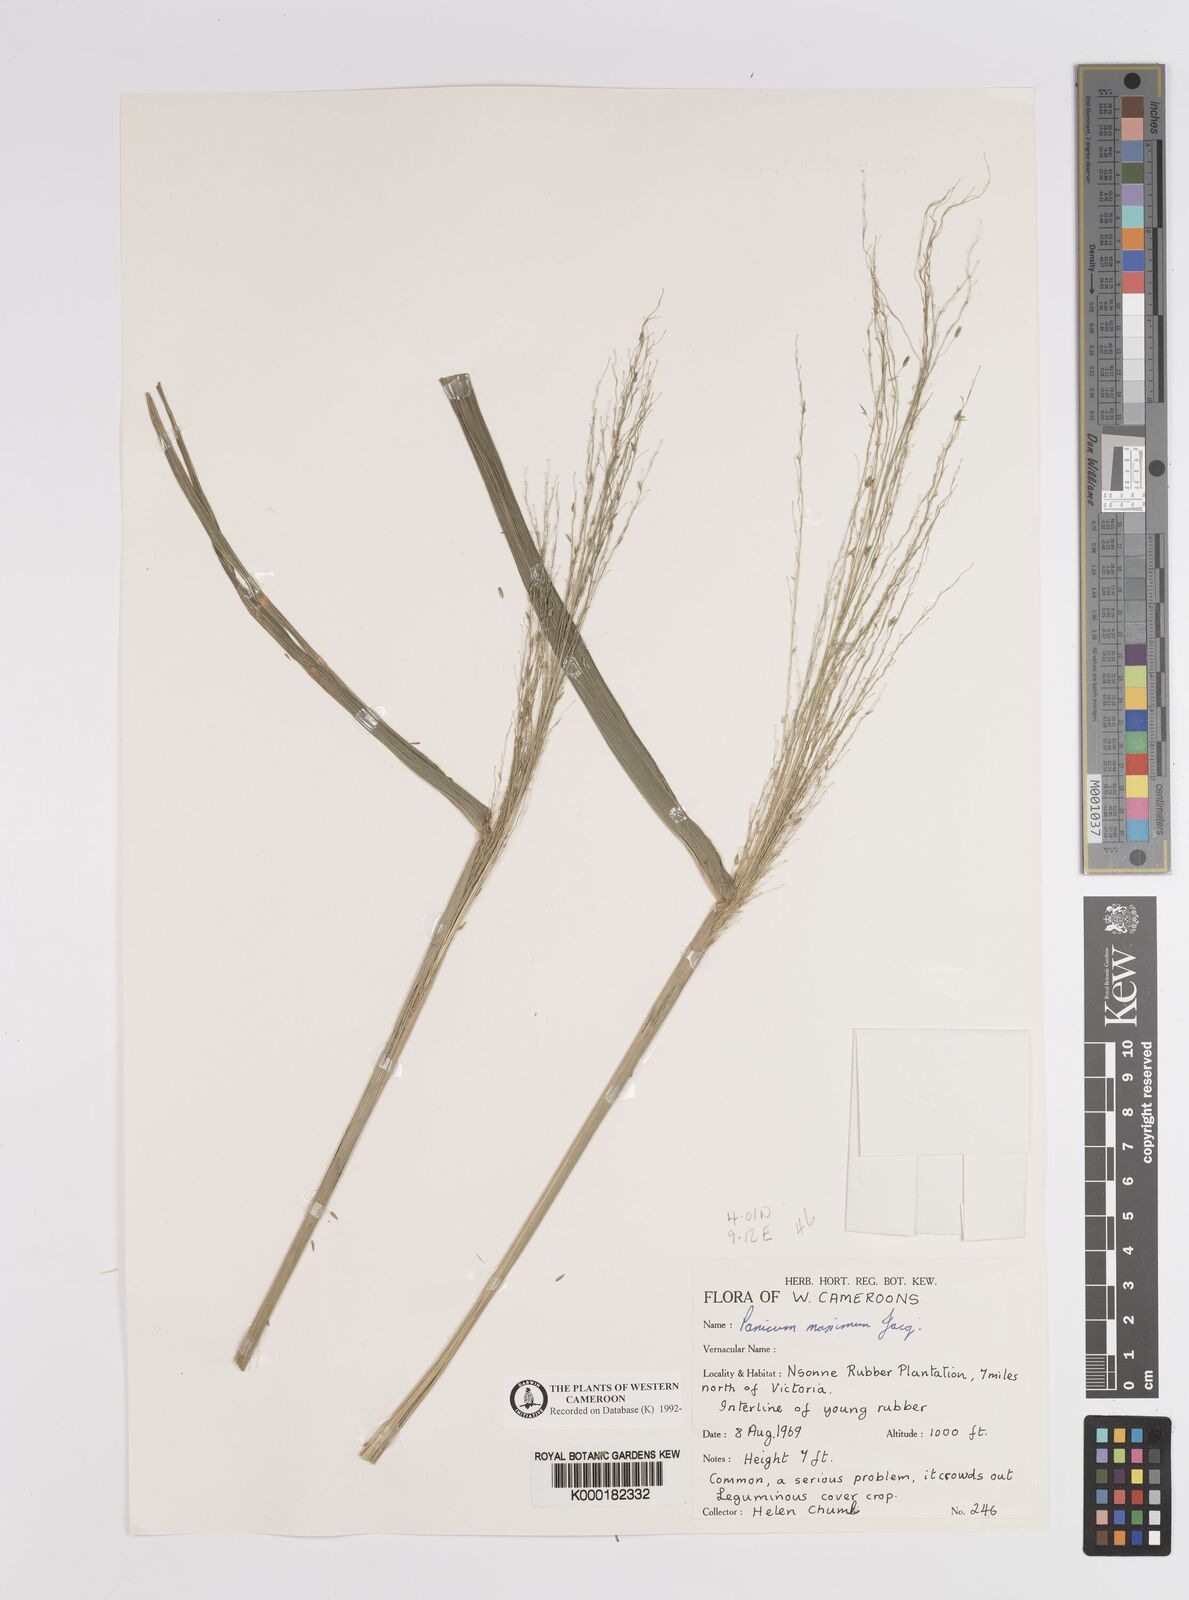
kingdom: Plantae
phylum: Tracheophyta
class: Liliopsida
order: Poales
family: Poaceae
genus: Megathyrsus
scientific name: Megathyrsus maximus
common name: Guineagrass
